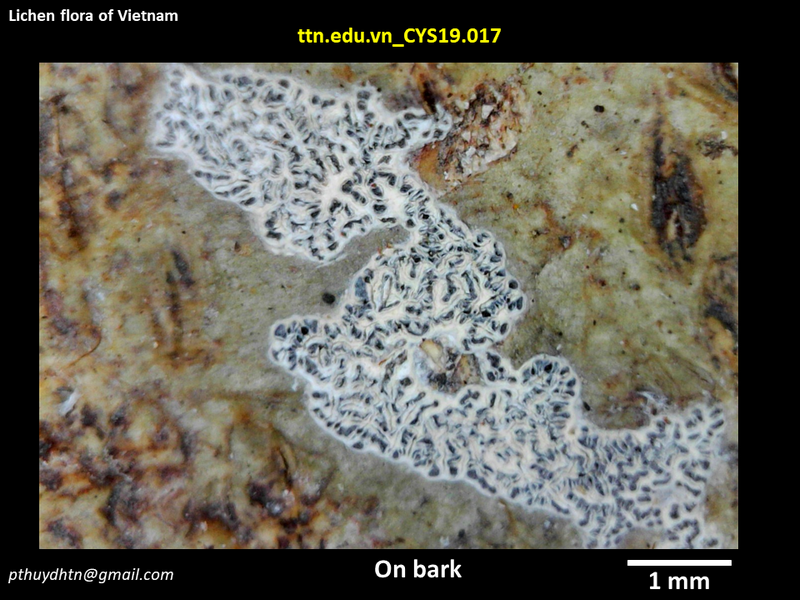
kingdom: Fungi
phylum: Ascomycota
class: Lecanoromycetes
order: Ostropales
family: Graphidaceae
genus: Graphis
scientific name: Graphis
